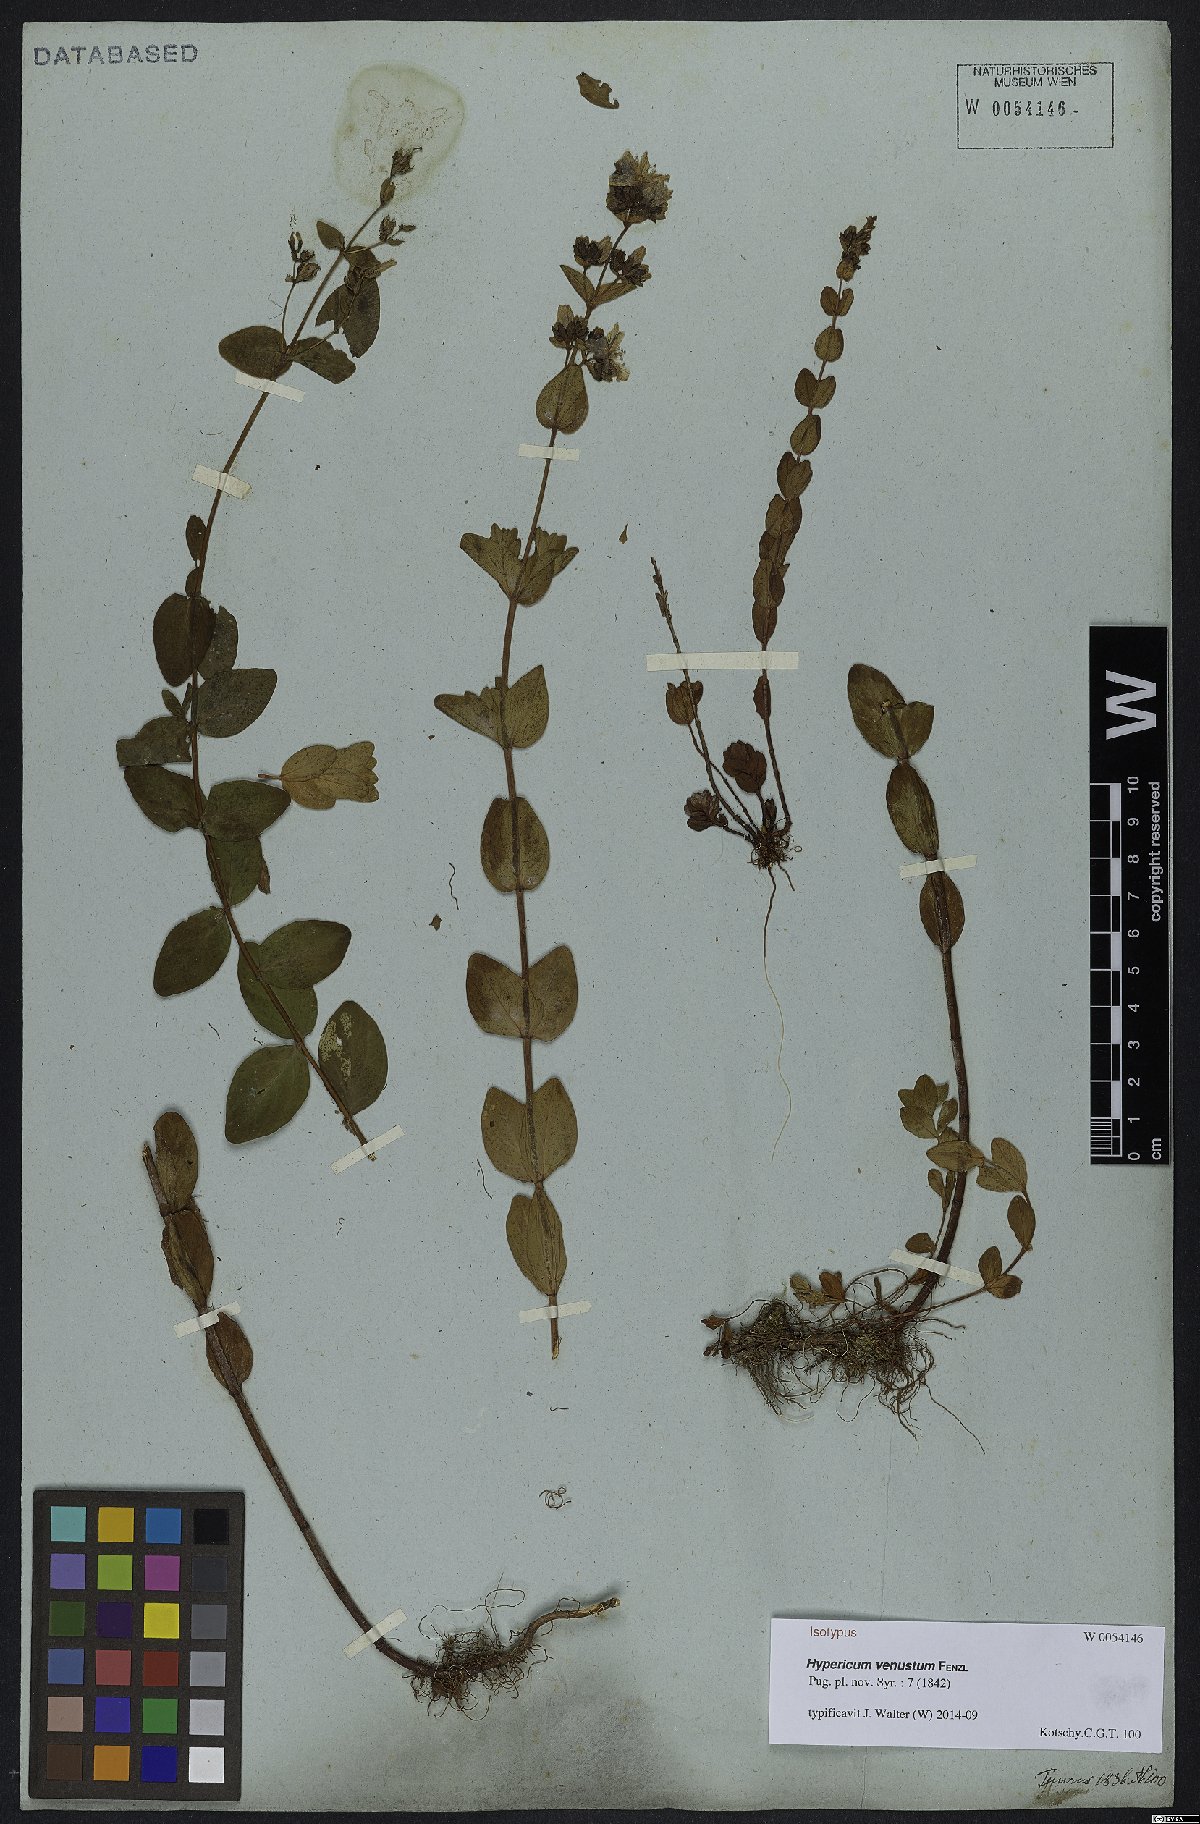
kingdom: Plantae
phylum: Tracheophyta
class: Magnoliopsida
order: Malpighiales
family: Hypericaceae
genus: Hypericum
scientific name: Hypericum venustum
